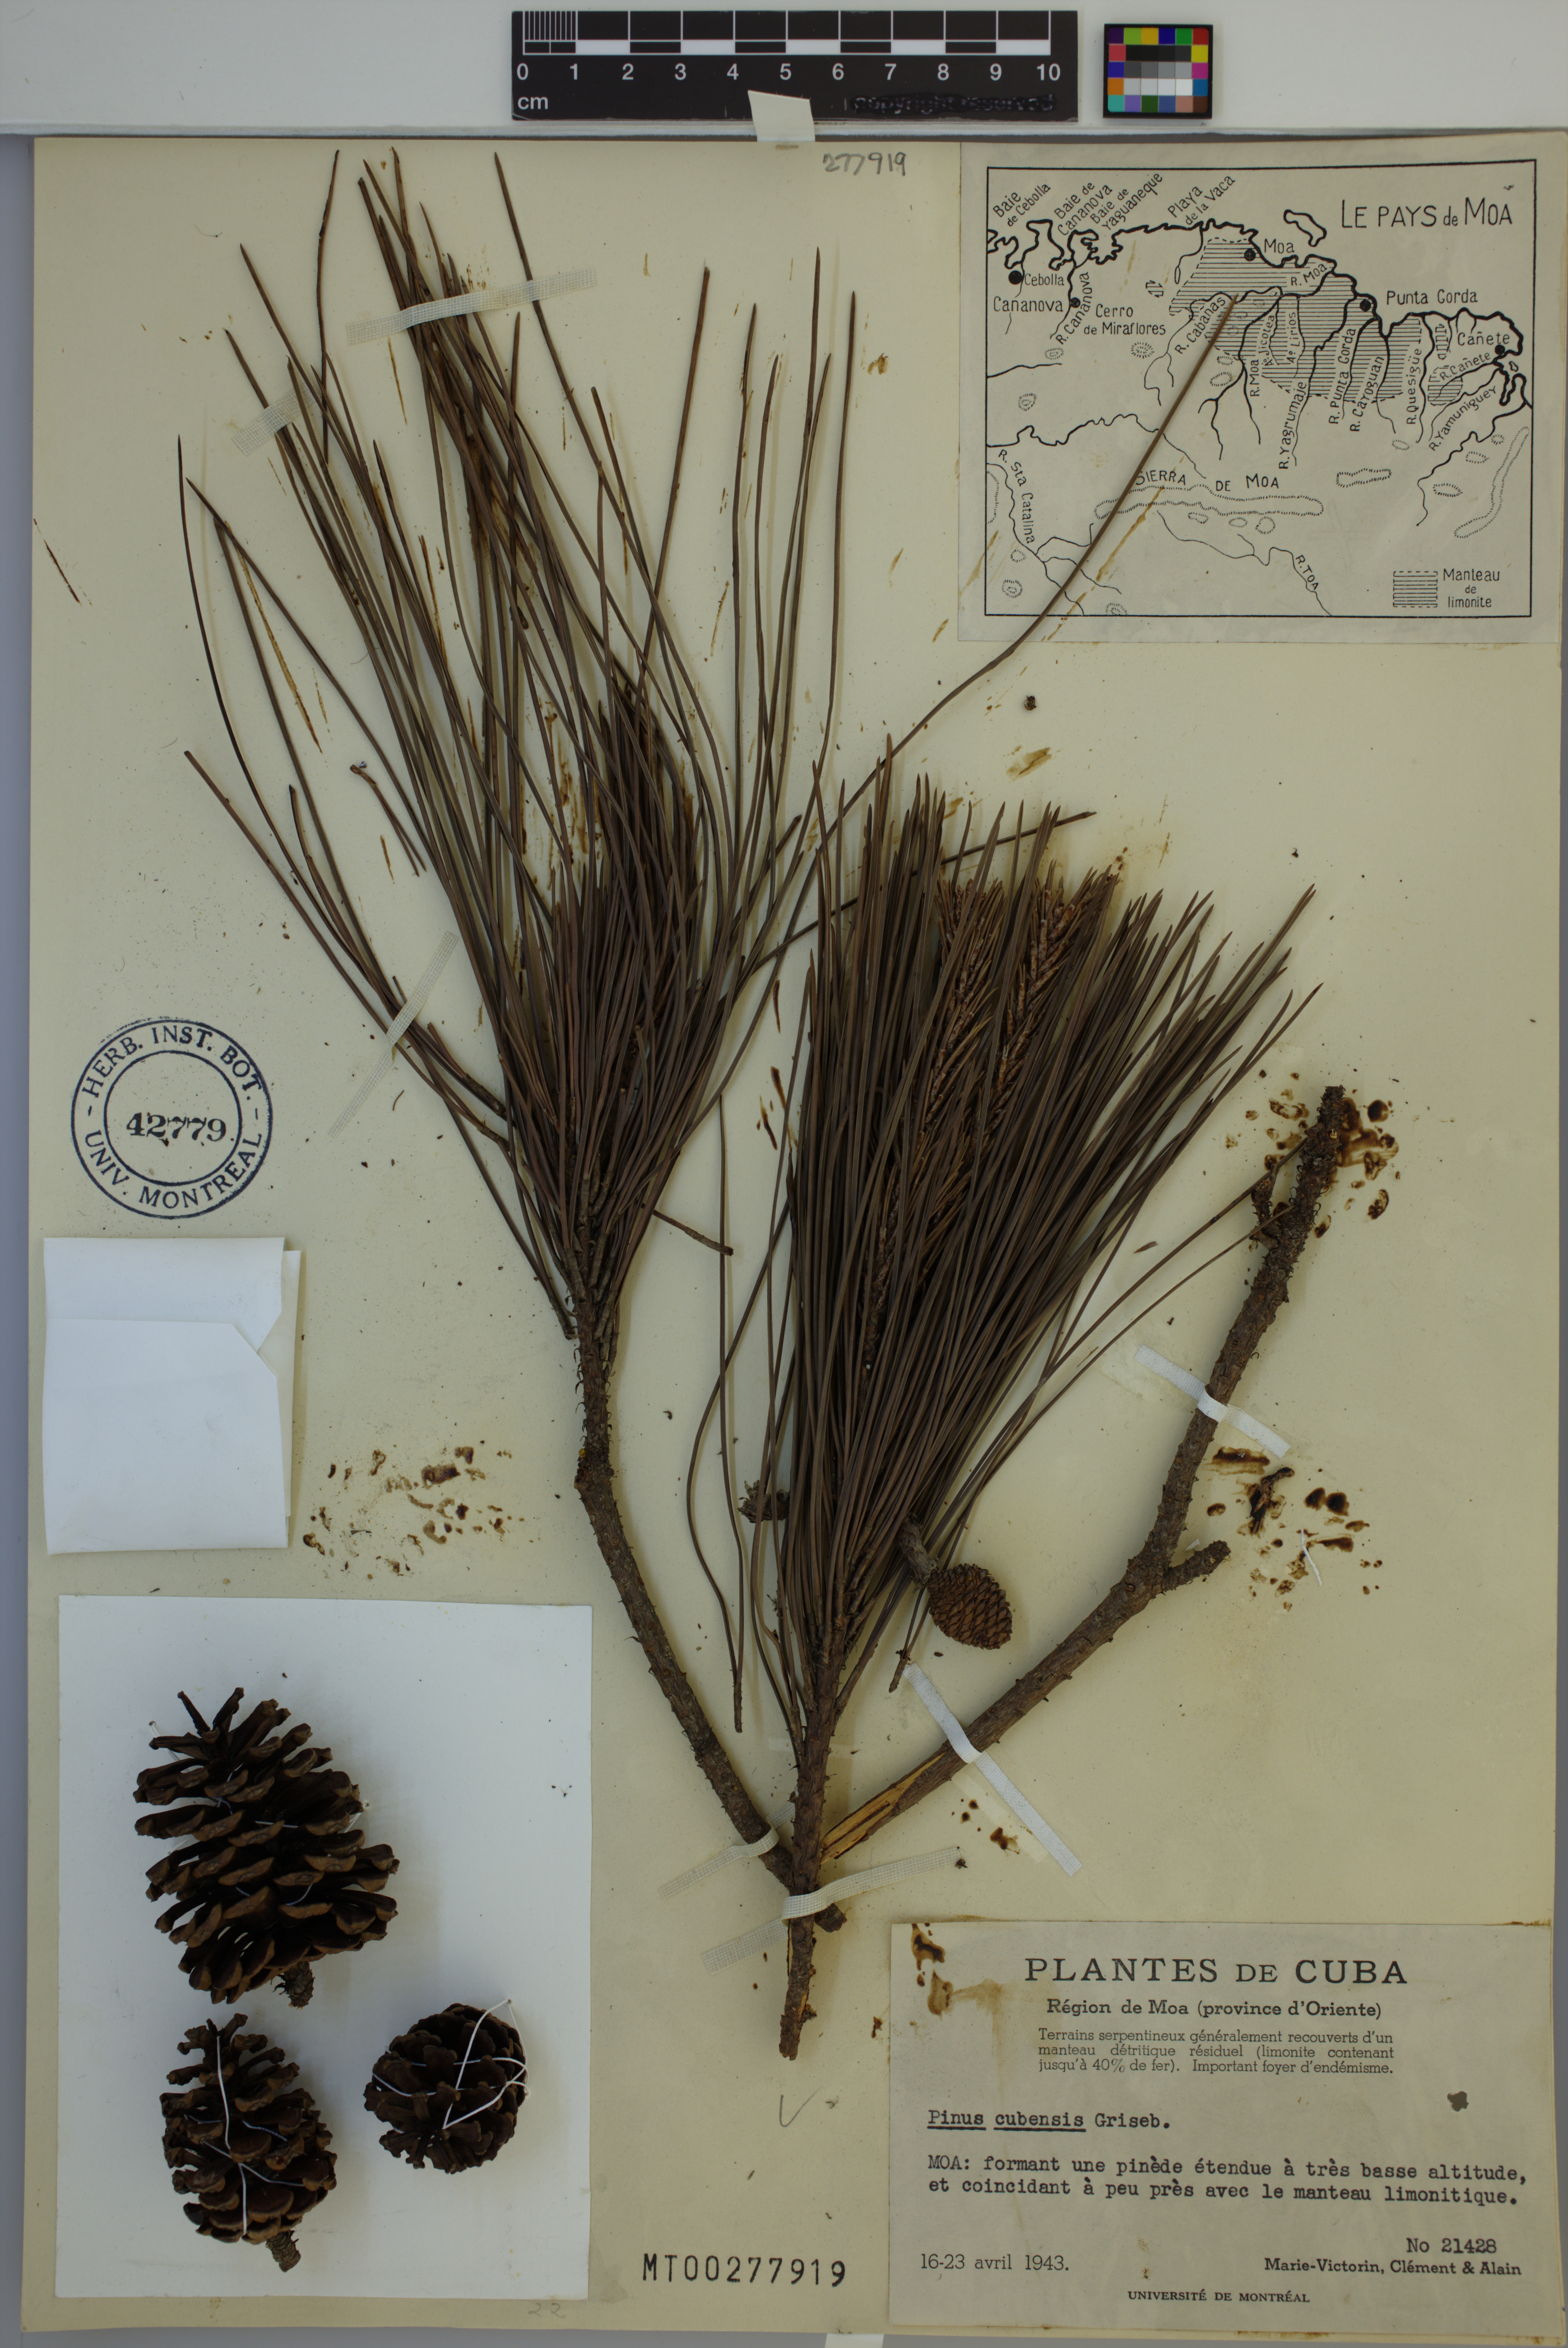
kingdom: Plantae
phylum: Tracheophyta
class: Pinopsida
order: Pinales
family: Pinaceae
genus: Pinus
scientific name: Pinus cubensis
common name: Cuban pine
